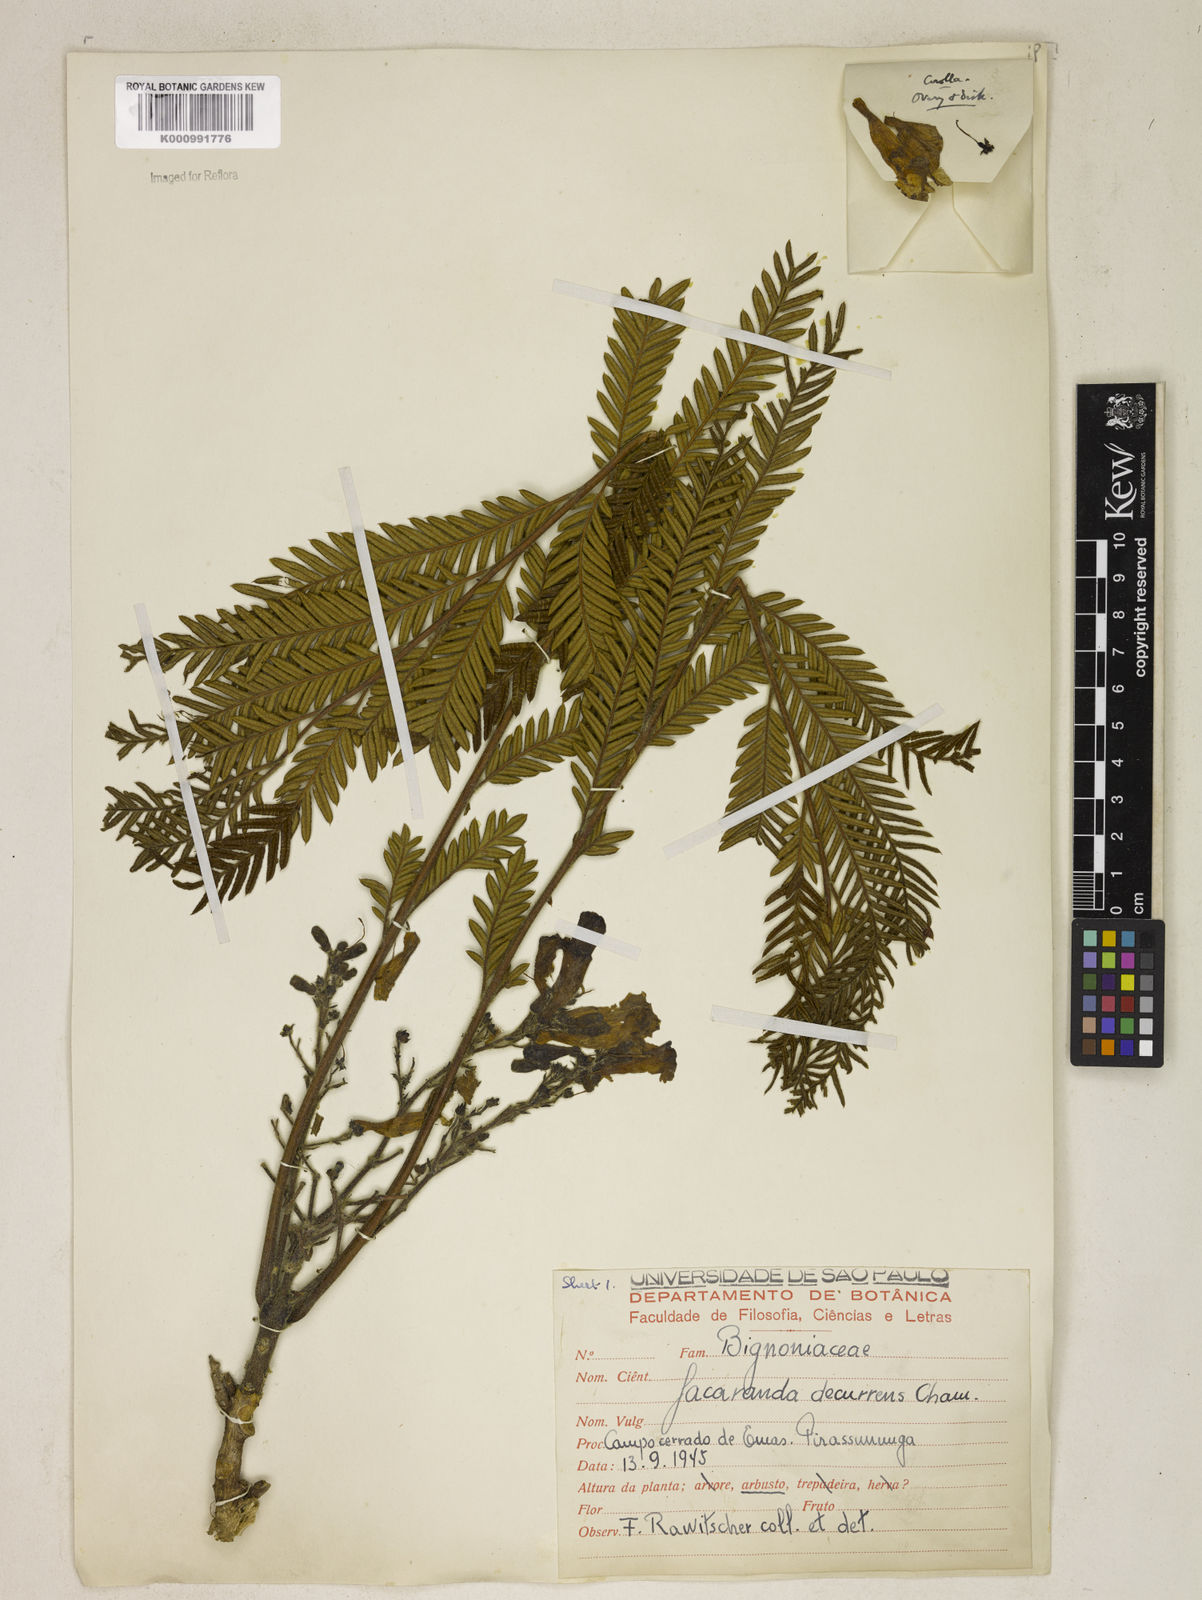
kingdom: Plantae
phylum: Tracheophyta
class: Magnoliopsida
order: Lamiales
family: Bignoniaceae
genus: Jacaranda
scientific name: Jacaranda decurrens
